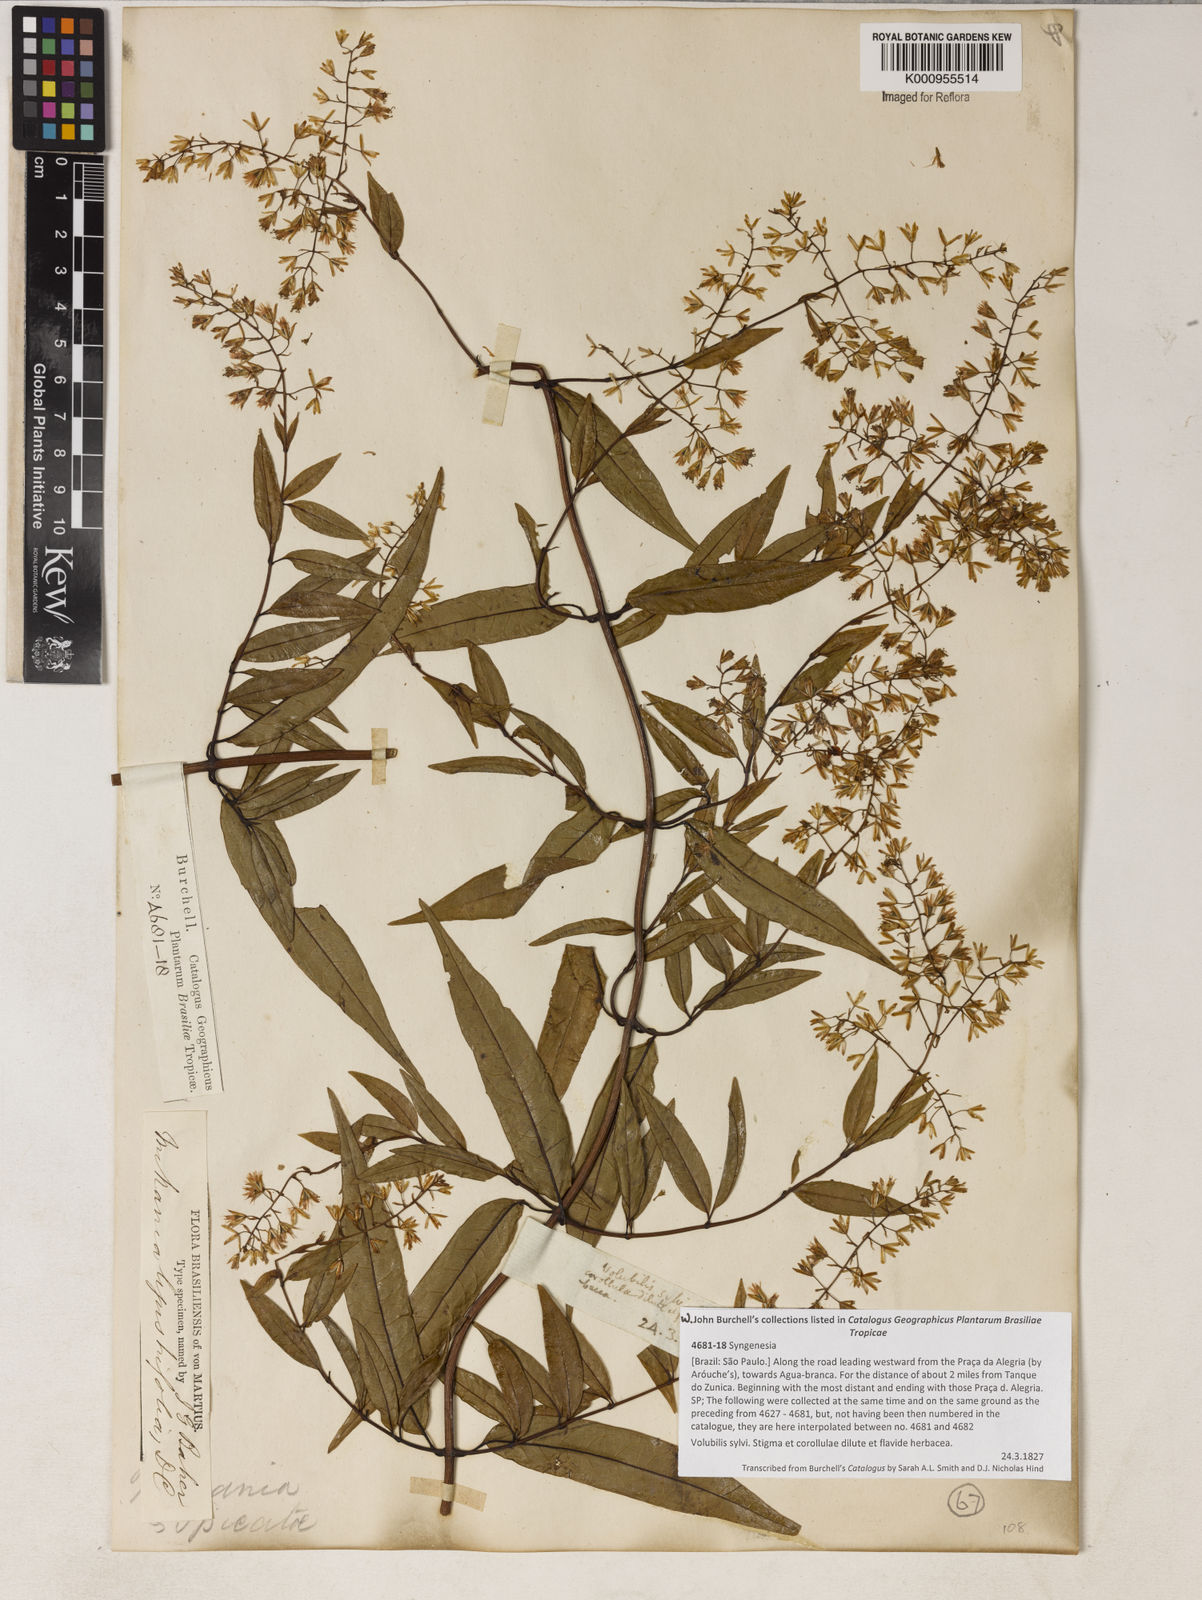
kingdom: Plantae
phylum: Tracheophyta
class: Magnoliopsida
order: Asterales
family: Asteraceae
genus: Mikania
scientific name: Mikania ligustrifolia
